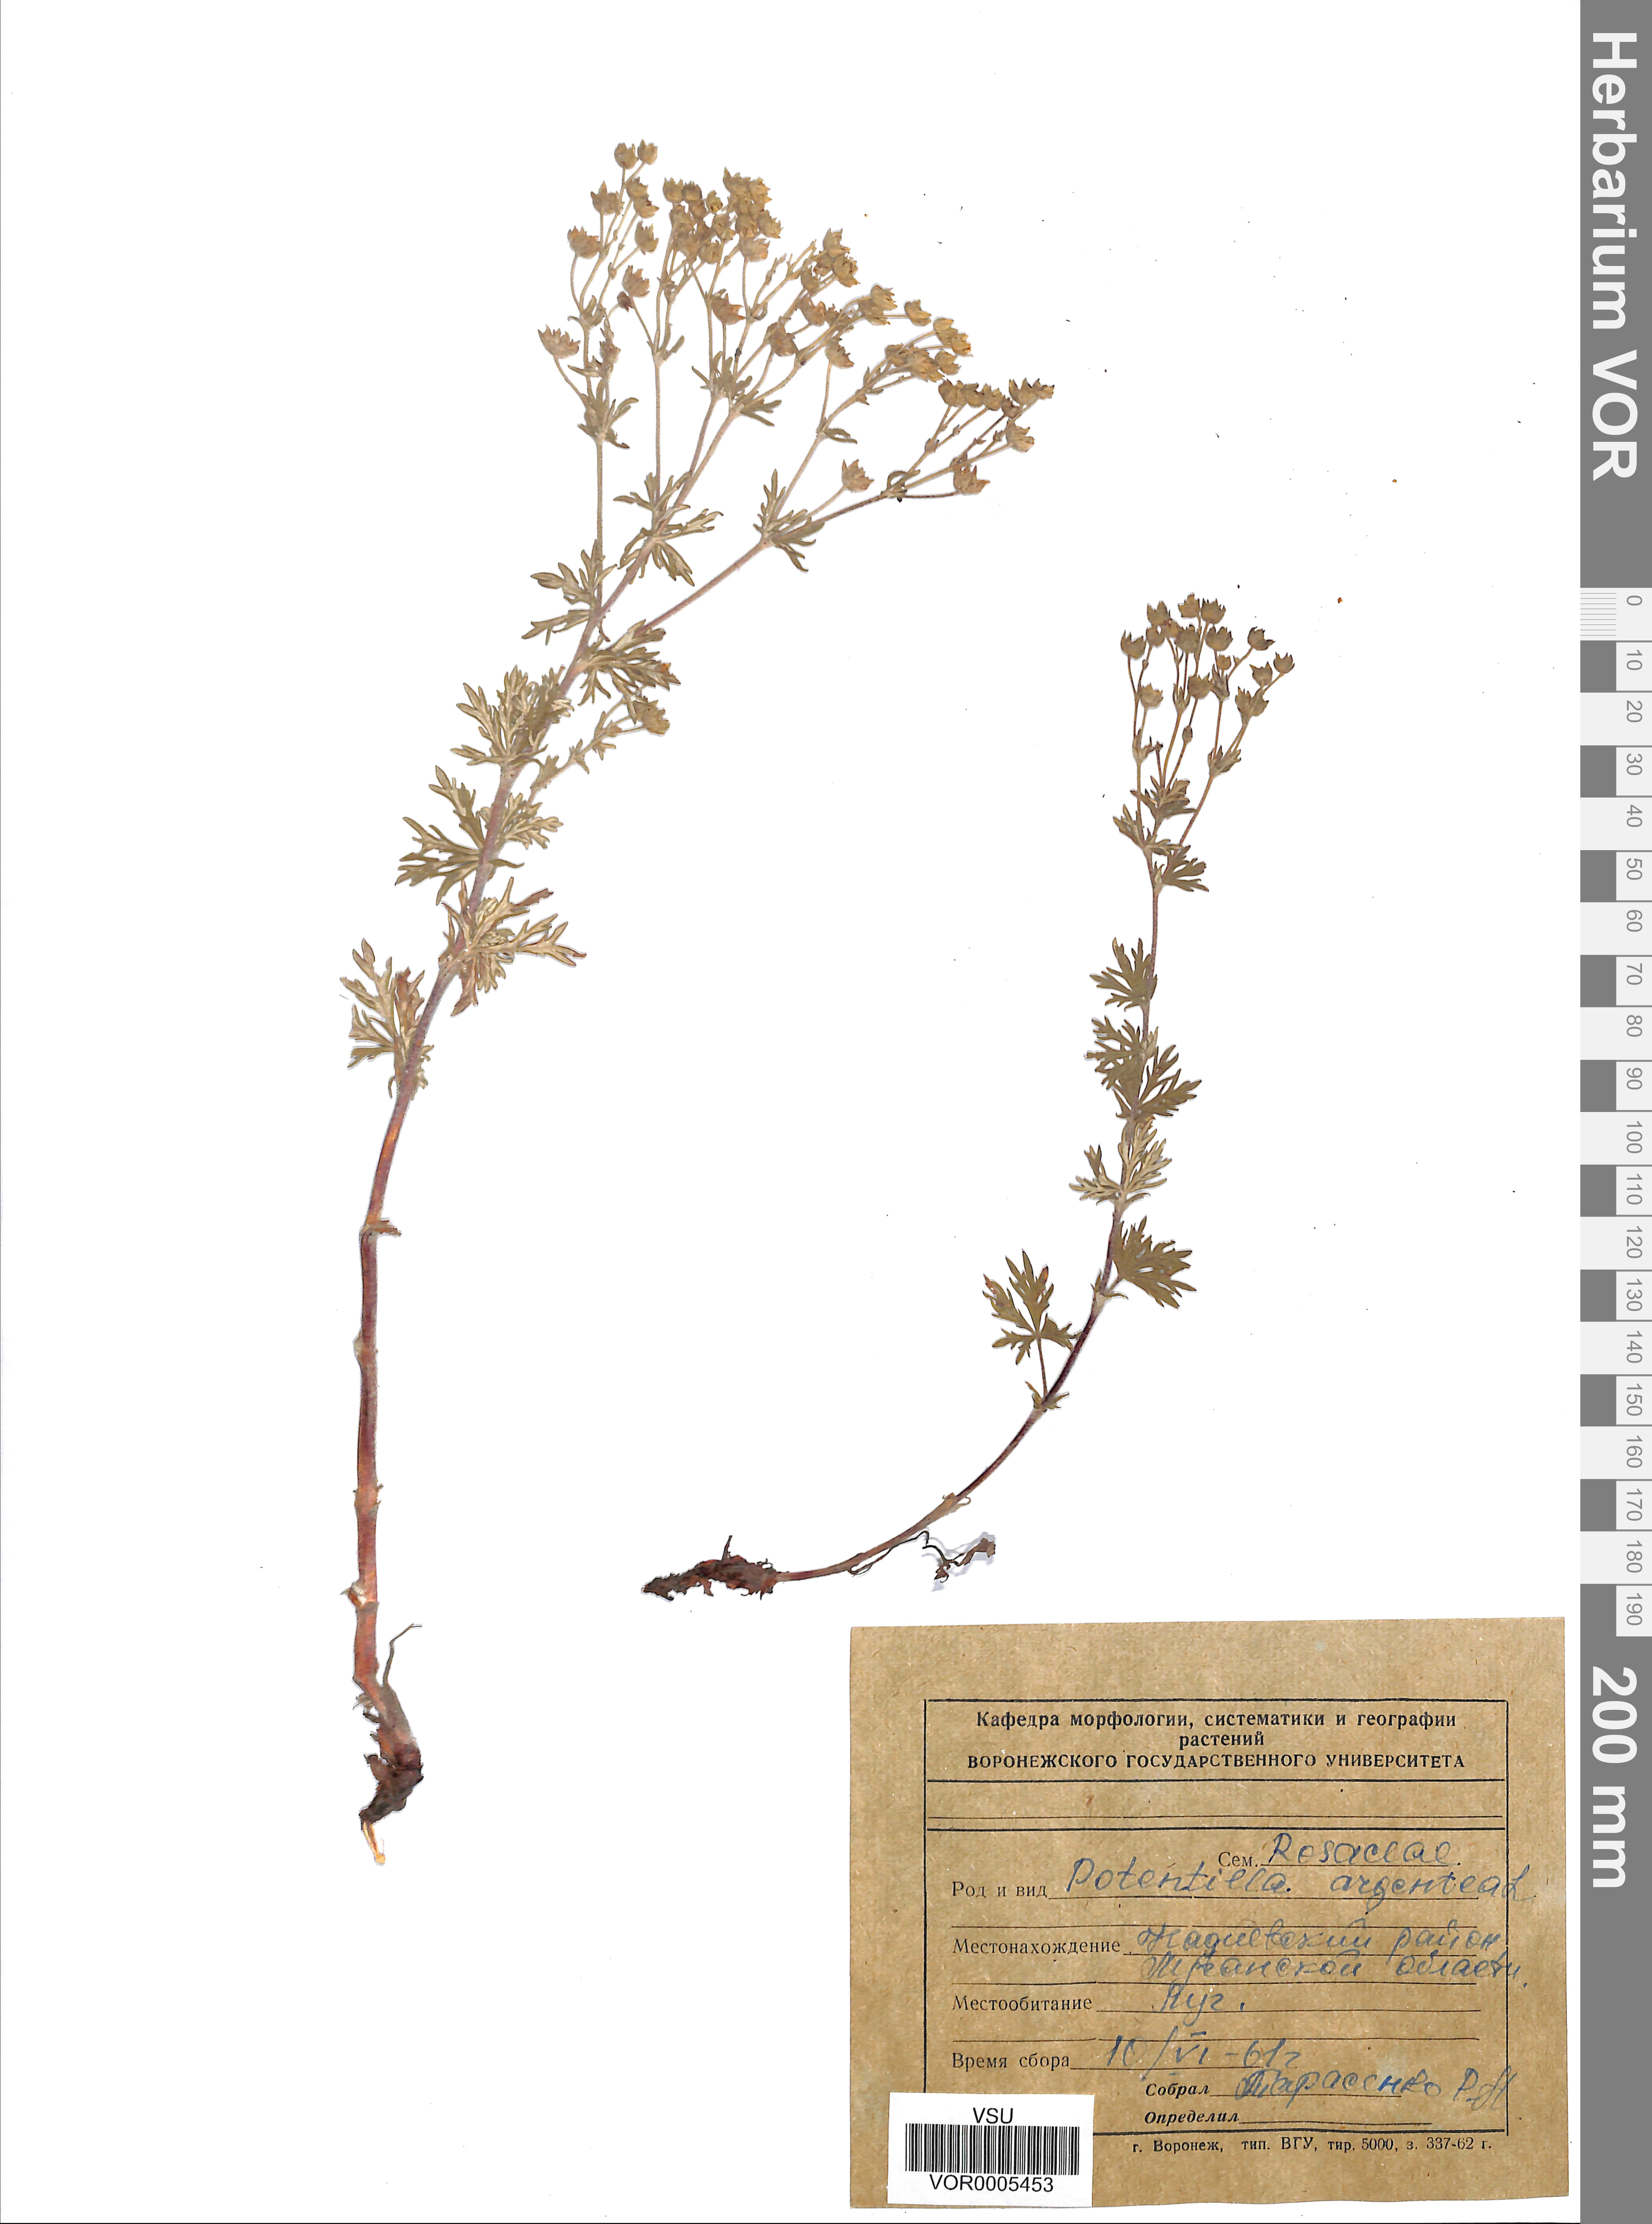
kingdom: Plantae
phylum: Tracheophyta
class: Magnoliopsida
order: Rosales
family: Rosaceae
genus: Potentilla
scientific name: Potentilla argentea
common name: Hoary cinquefoil
